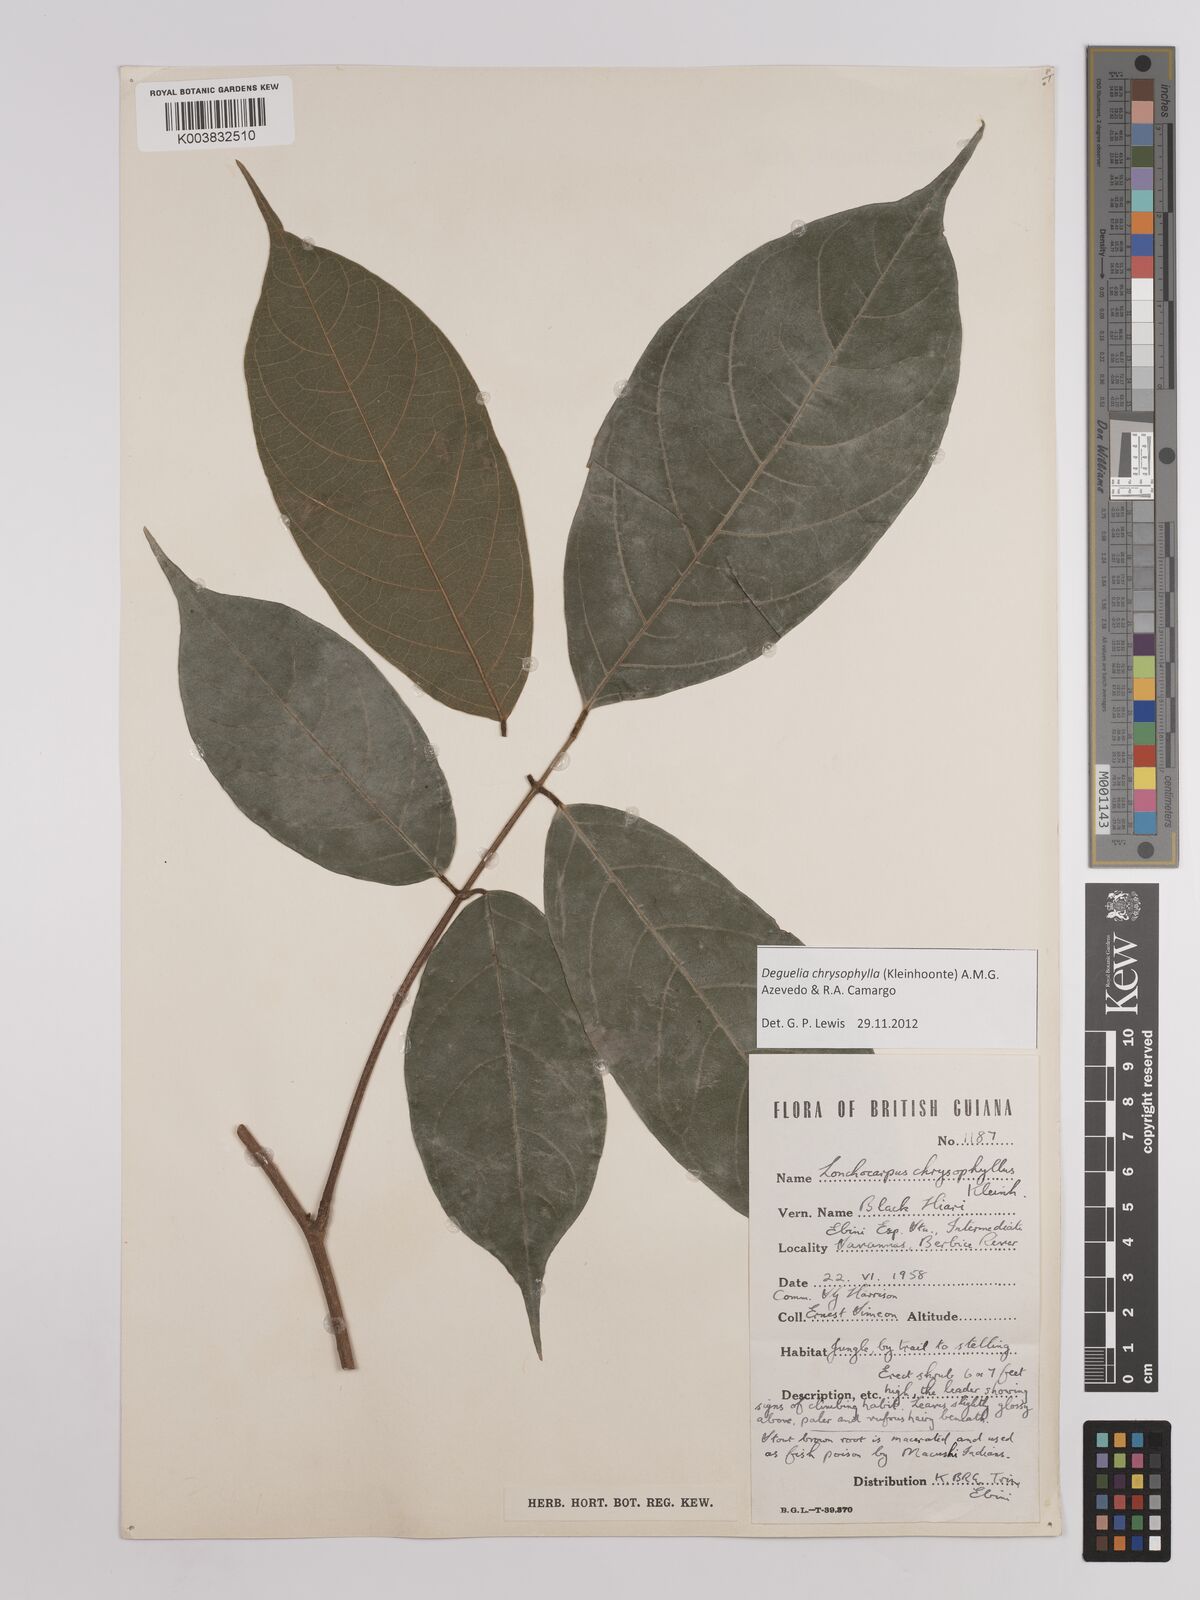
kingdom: Plantae
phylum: Tracheophyta
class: Magnoliopsida
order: Fabales
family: Fabaceae
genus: Deguelia
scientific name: Deguelia chrysophylla
